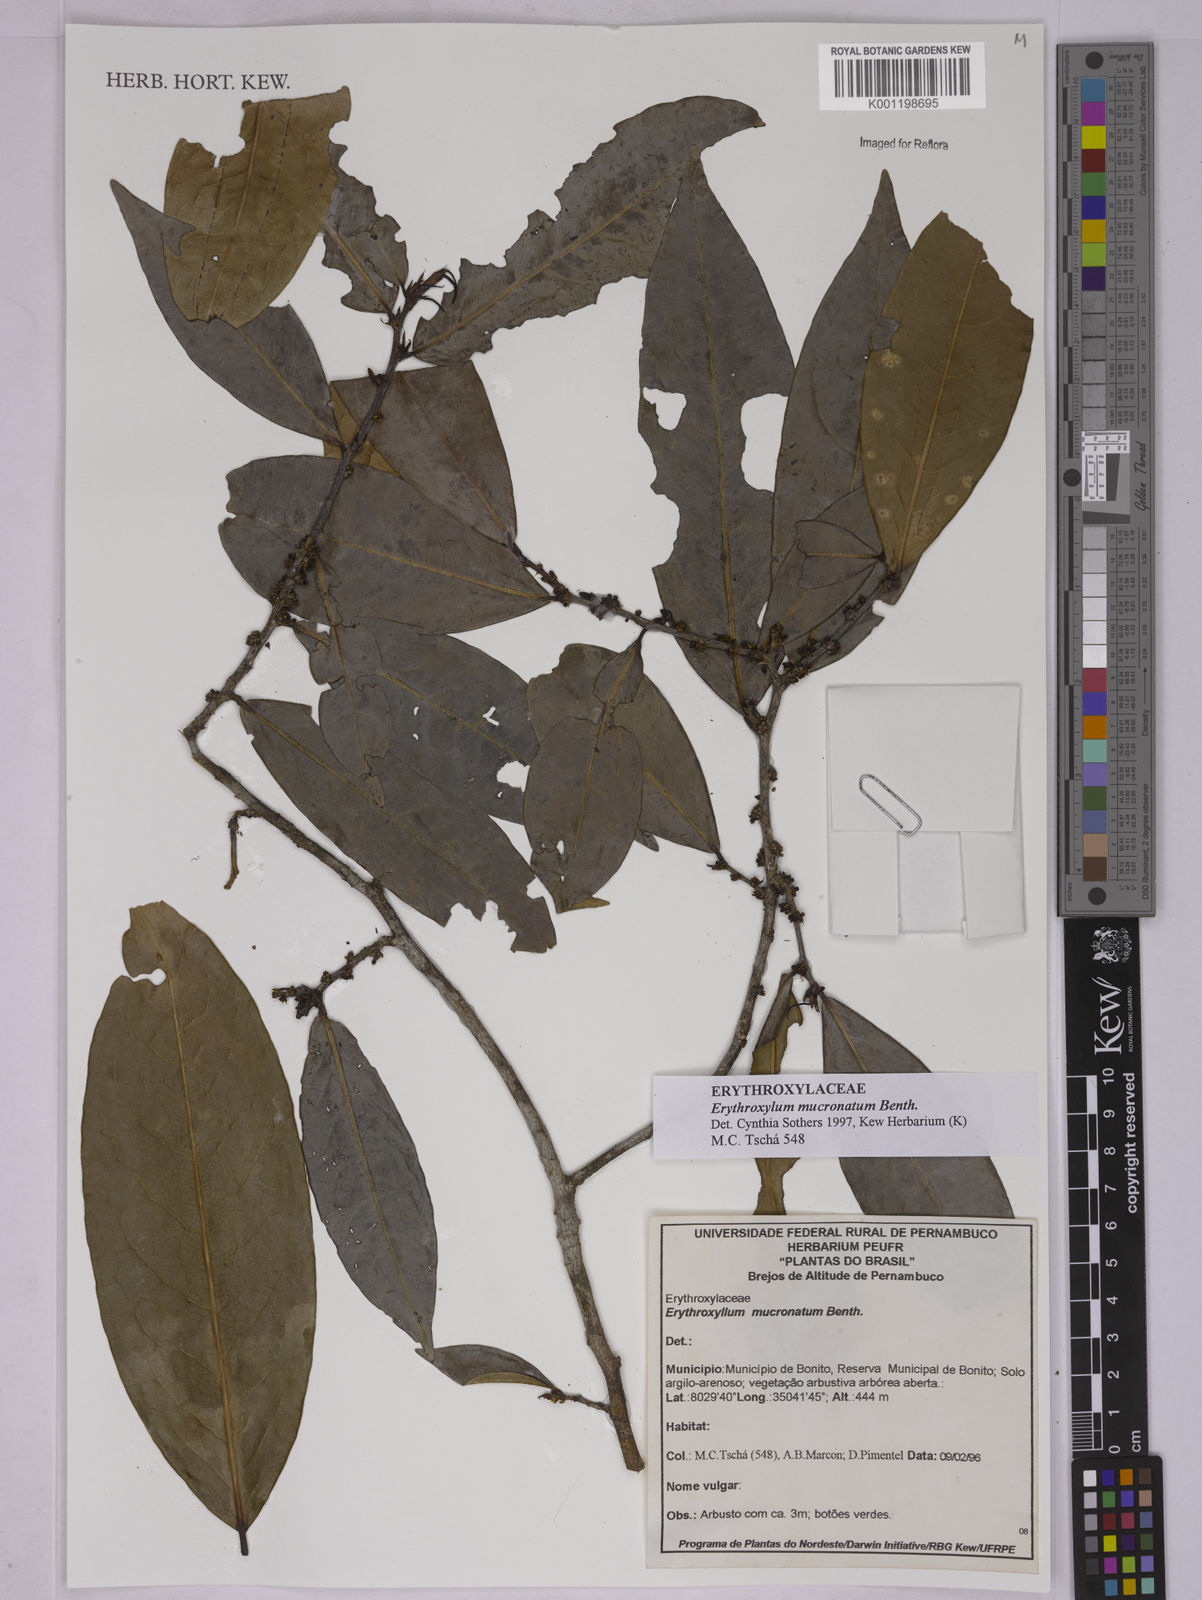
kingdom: Plantae
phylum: Tracheophyta
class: Magnoliopsida
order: Malpighiales
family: Erythroxylaceae
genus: Erythroxylum
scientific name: Erythroxylum mucronatum
